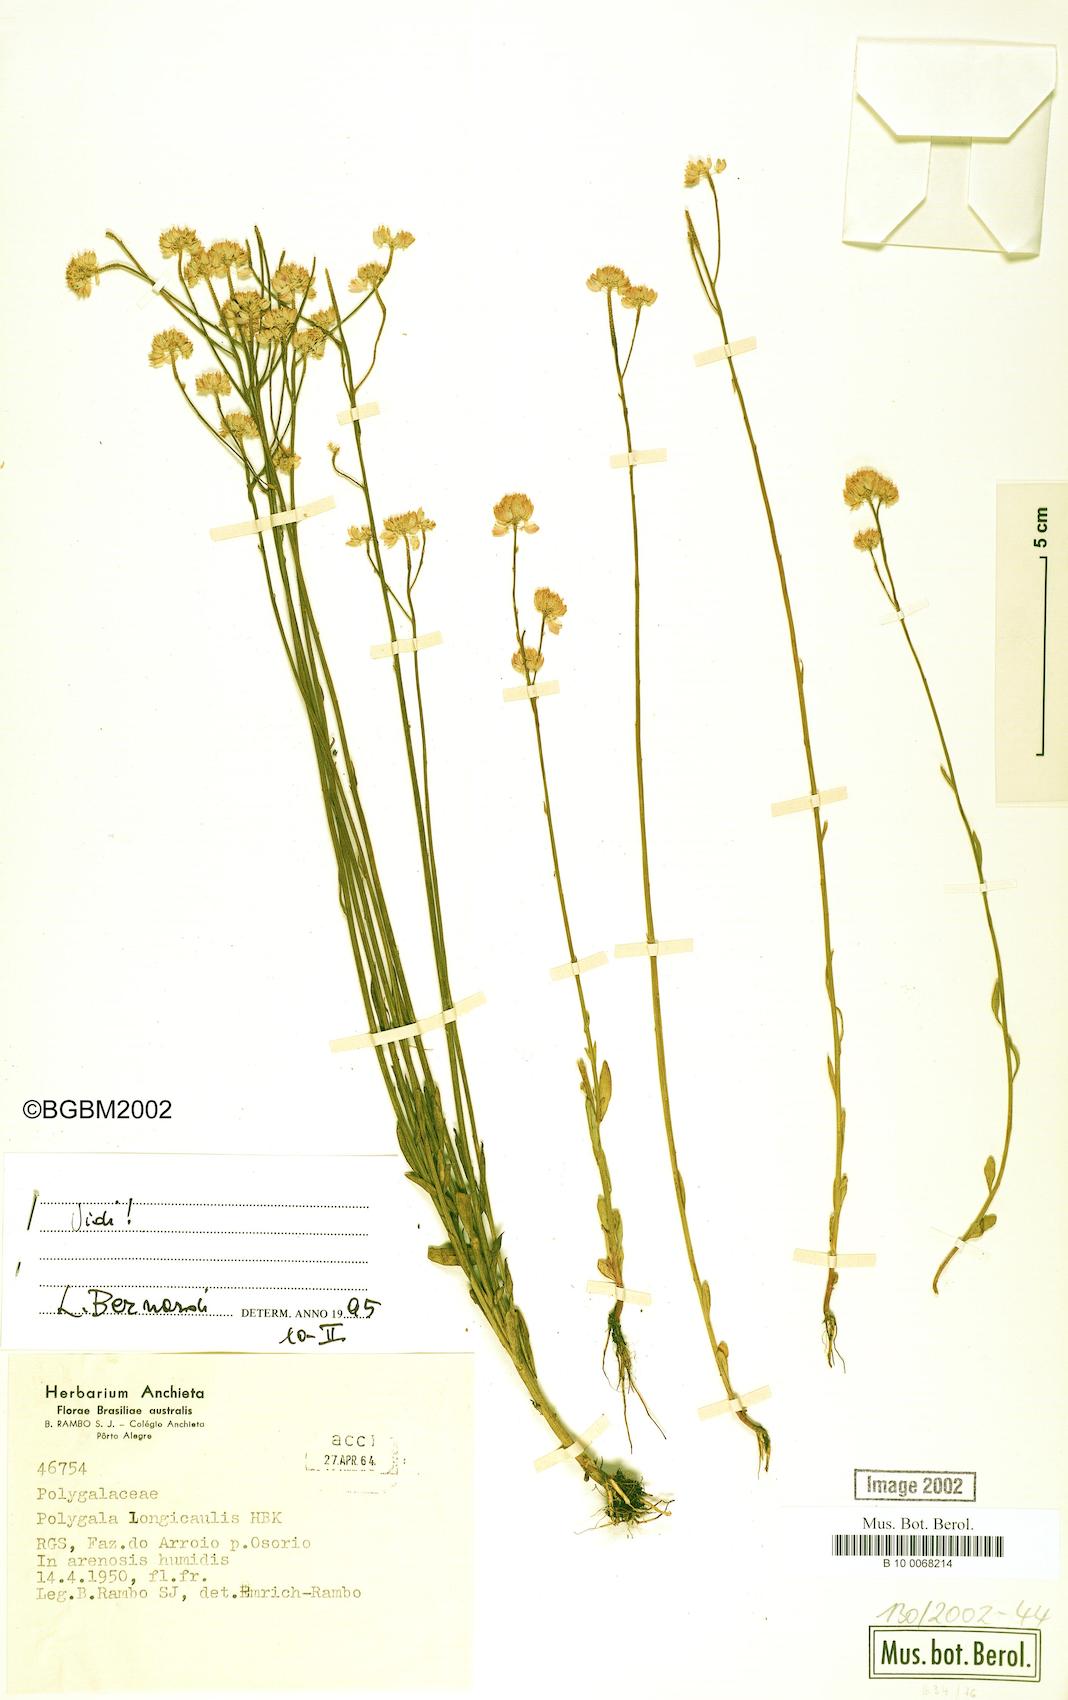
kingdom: Plantae
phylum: Tracheophyta
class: Magnoliopsida
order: Fabales
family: Polygalaceae
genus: Polygala
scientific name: Polygala longicaulis
